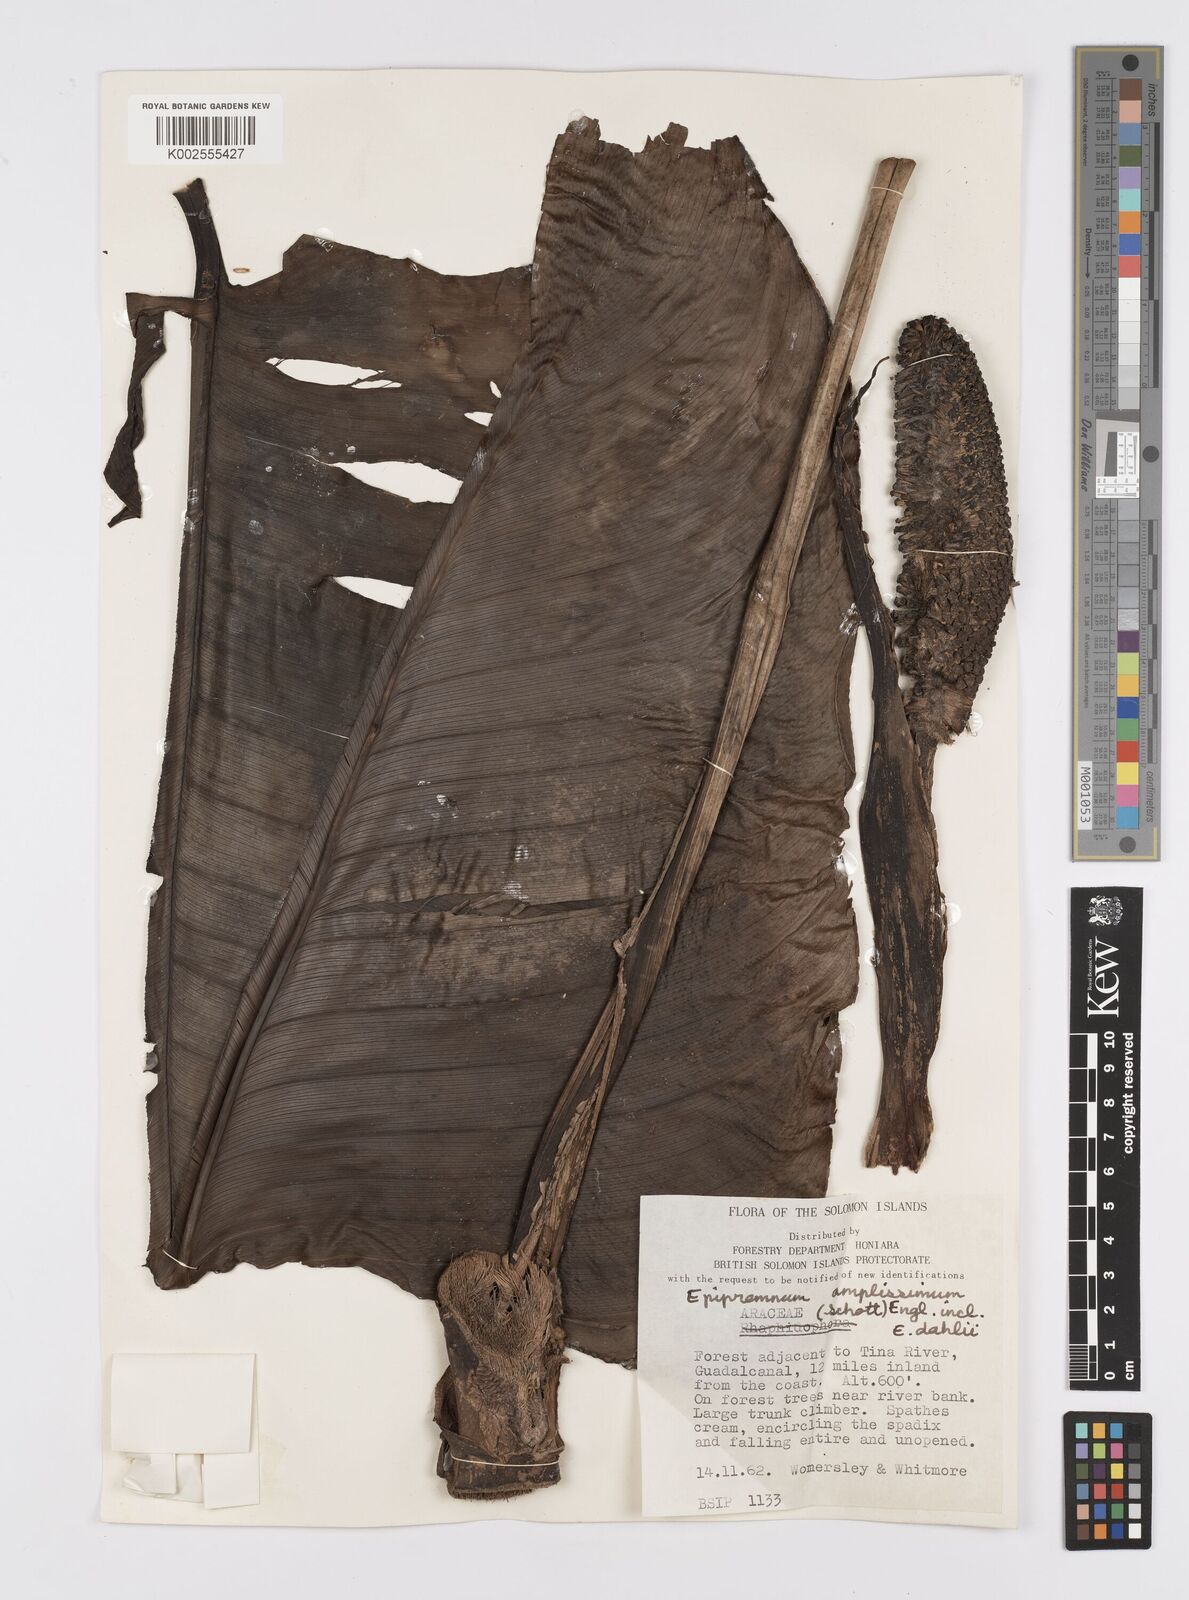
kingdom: Plantae
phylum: Tracheophyta
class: Liliopsida
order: Alismatales
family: Araceae
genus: Epipremnum
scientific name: Epipremnum amplissimum
